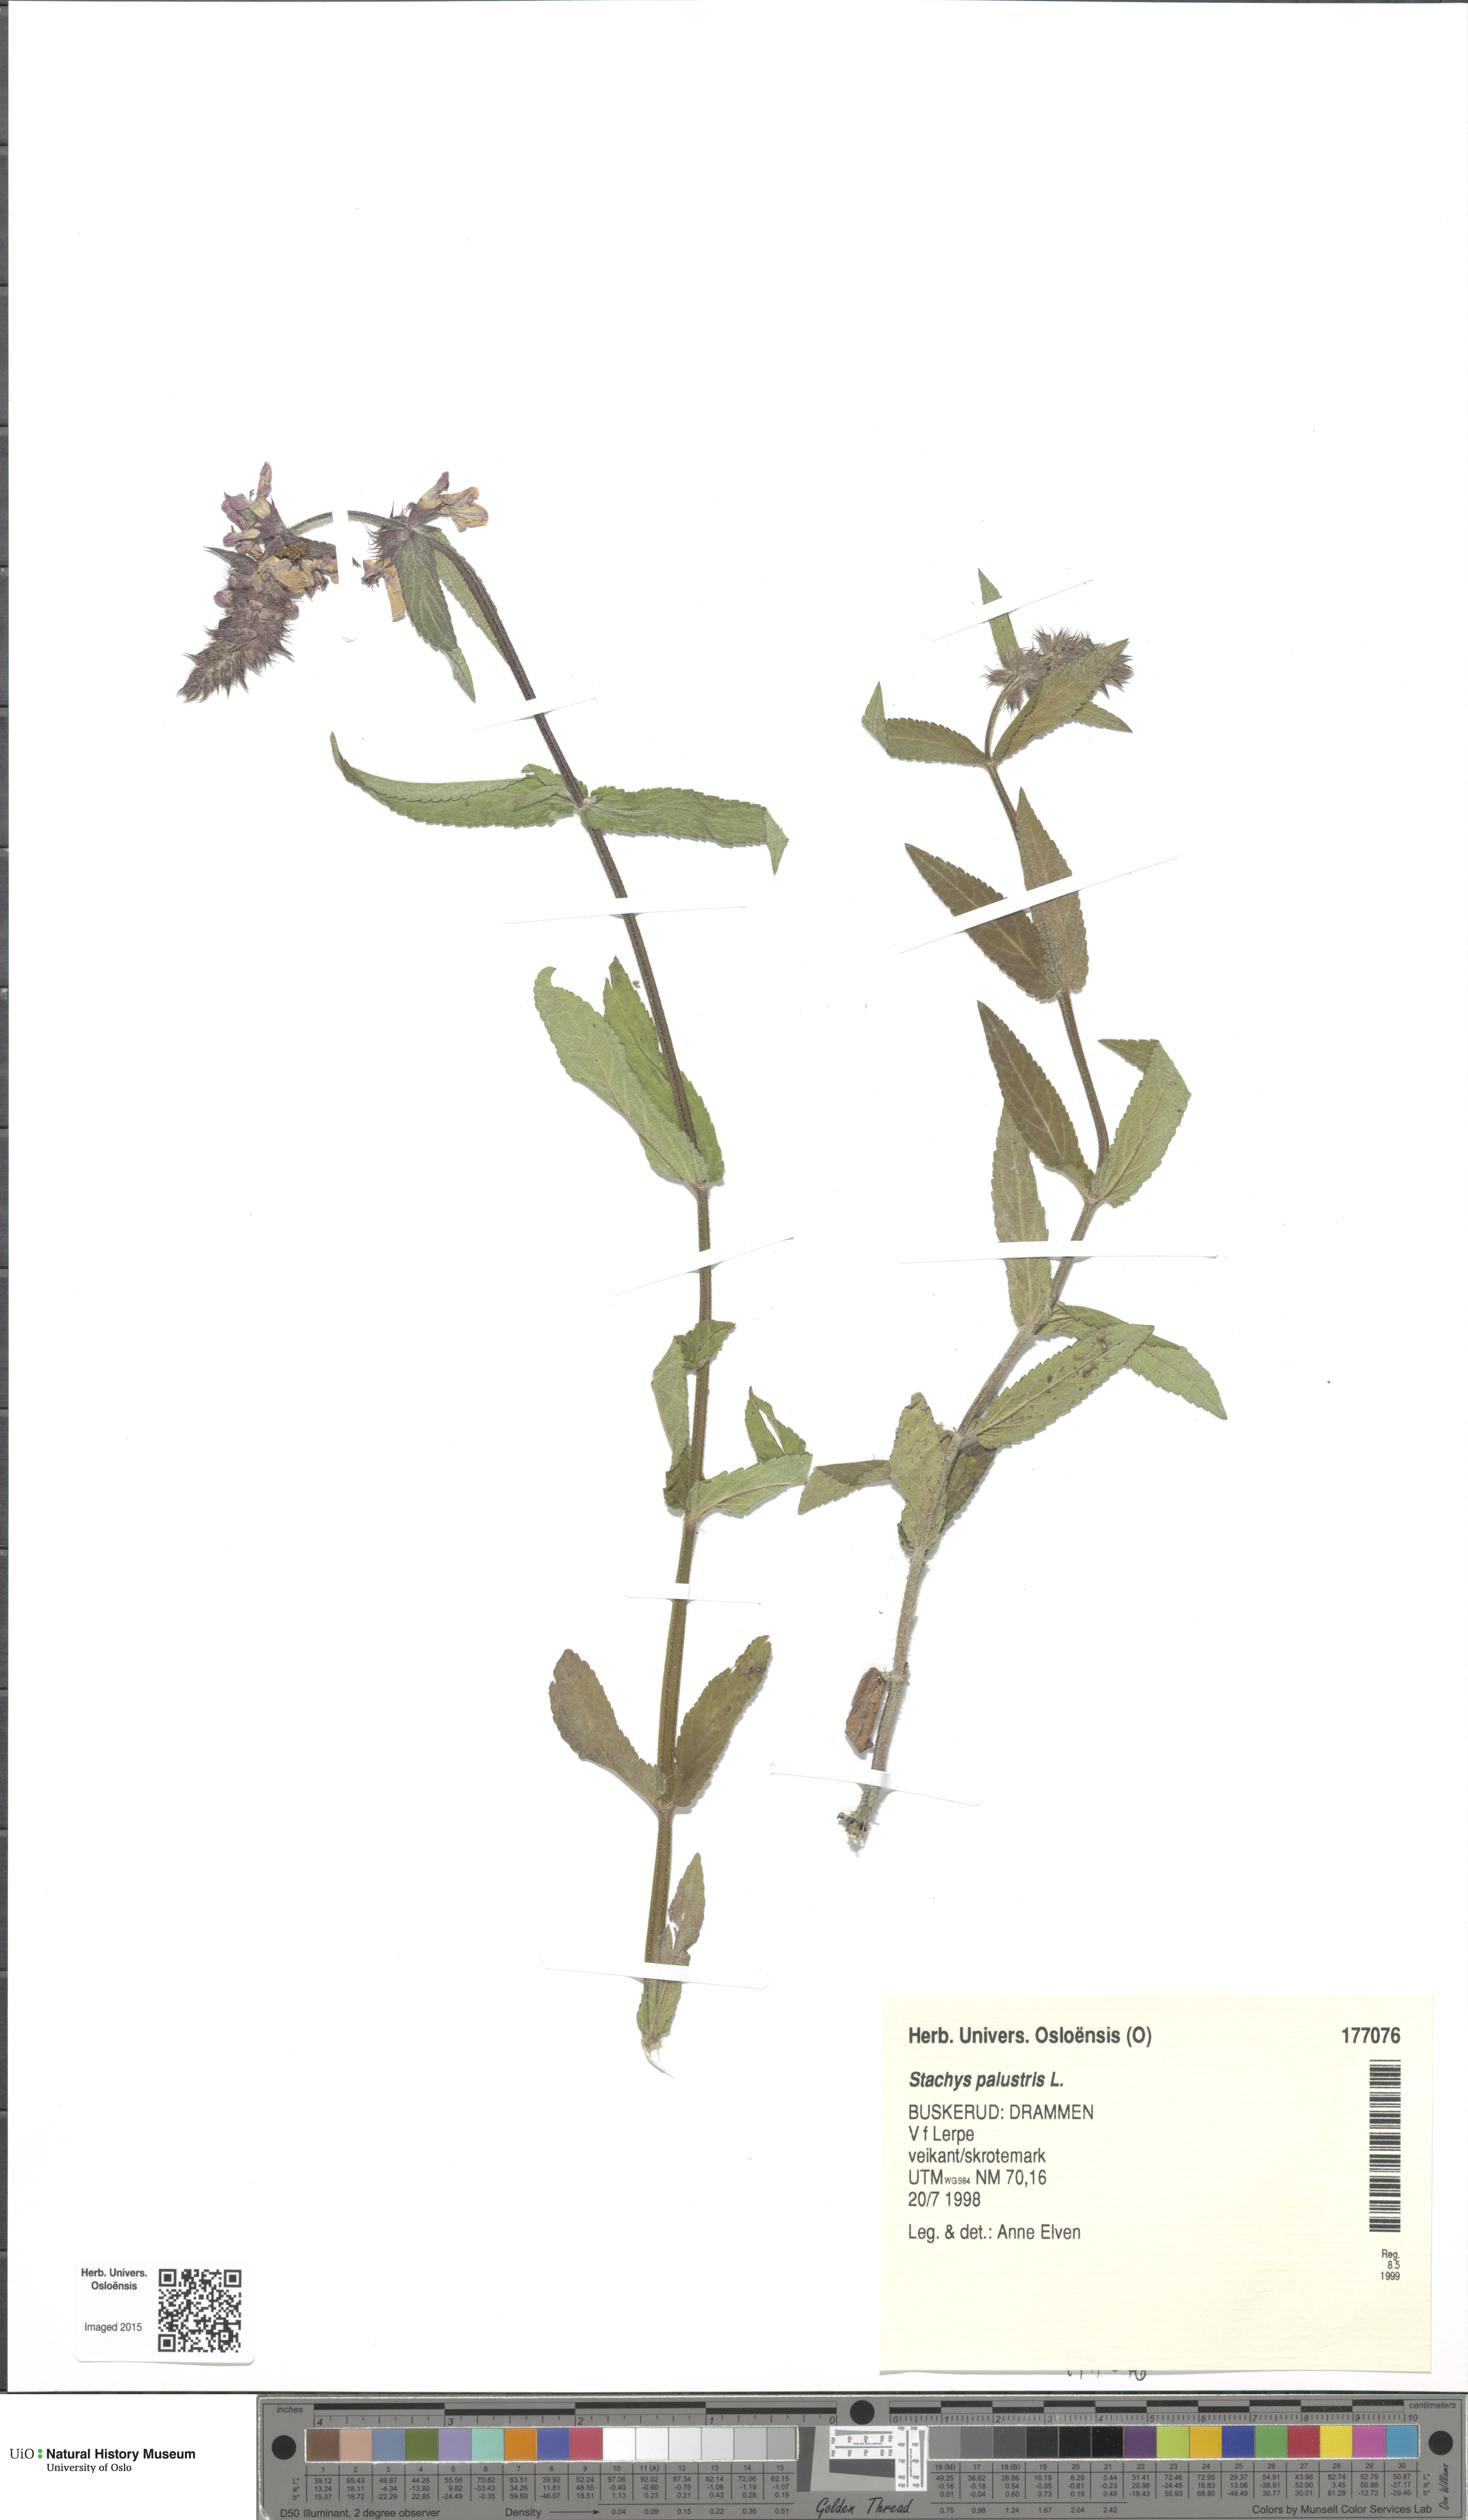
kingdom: Plantae
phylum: Tracheophyta
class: Magnoliopsida
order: Lamiales
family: Lamiaceae
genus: Stachys
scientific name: Stachys palustris
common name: Marsh woundwort
